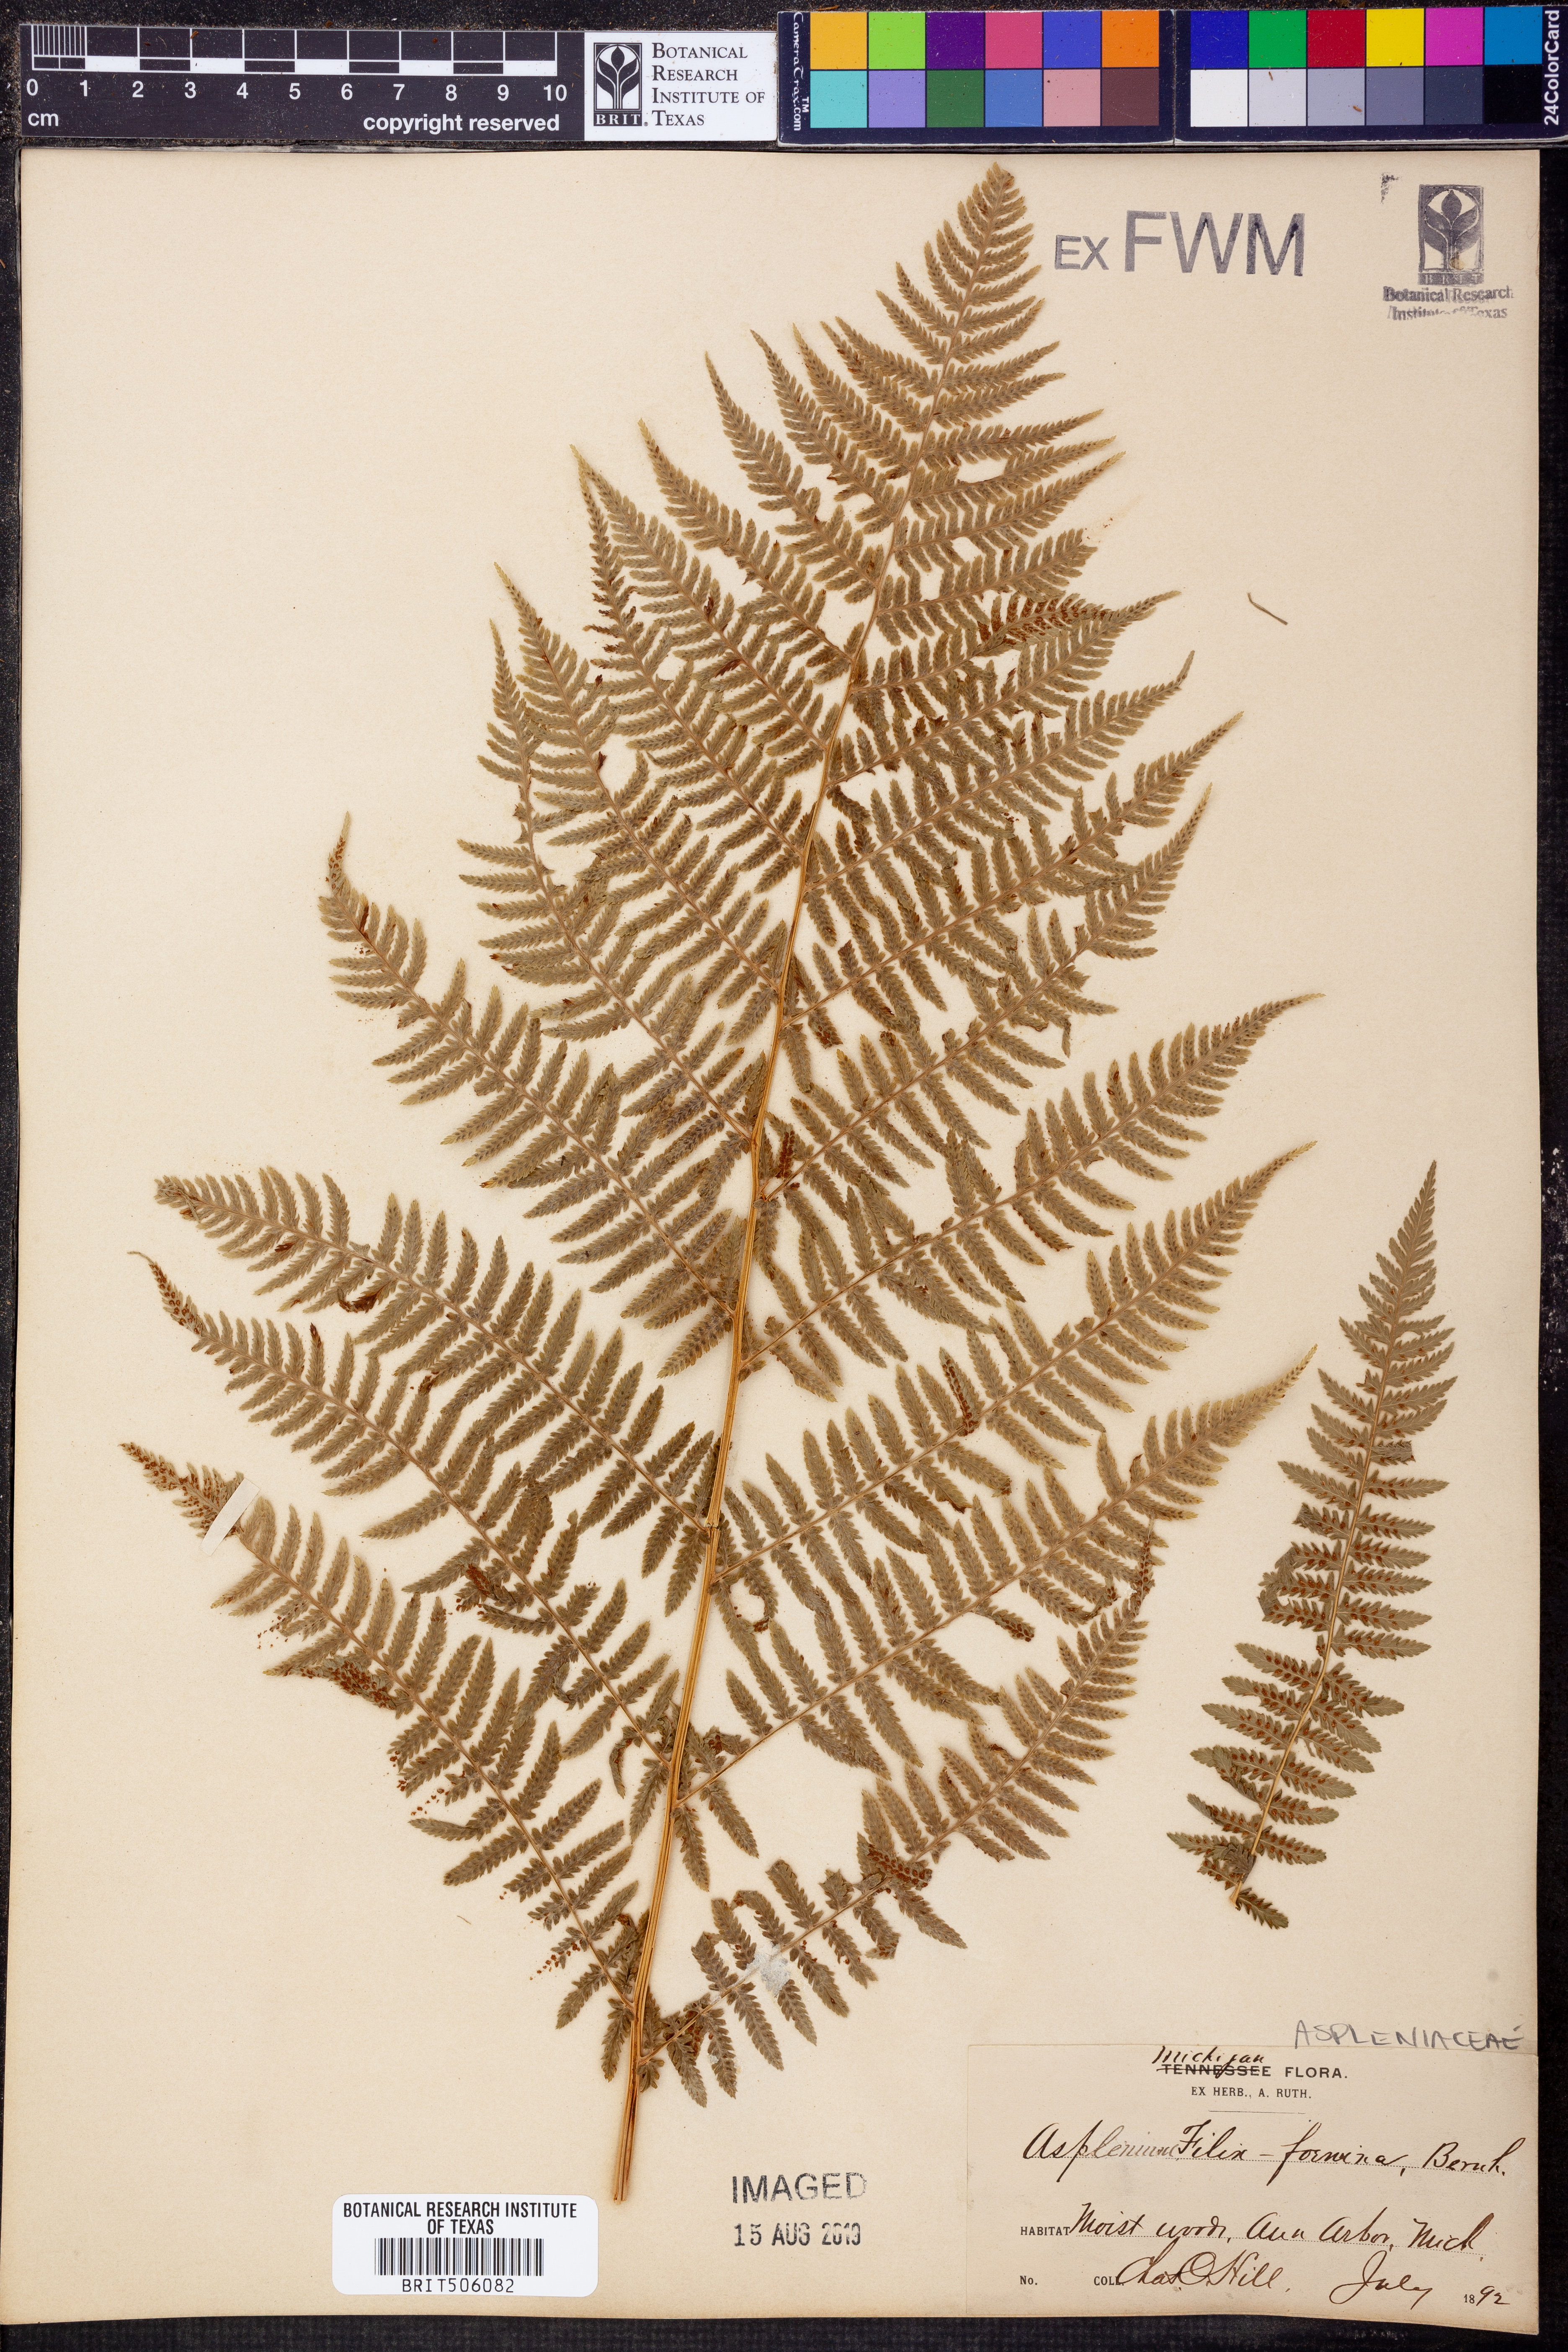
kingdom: Plantae
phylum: Tracheophyta
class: Polypodiopsida
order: Polypodiales
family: Athyriaceae
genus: Athyrium
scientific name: Athyrium filix-femina
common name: Lady fern
